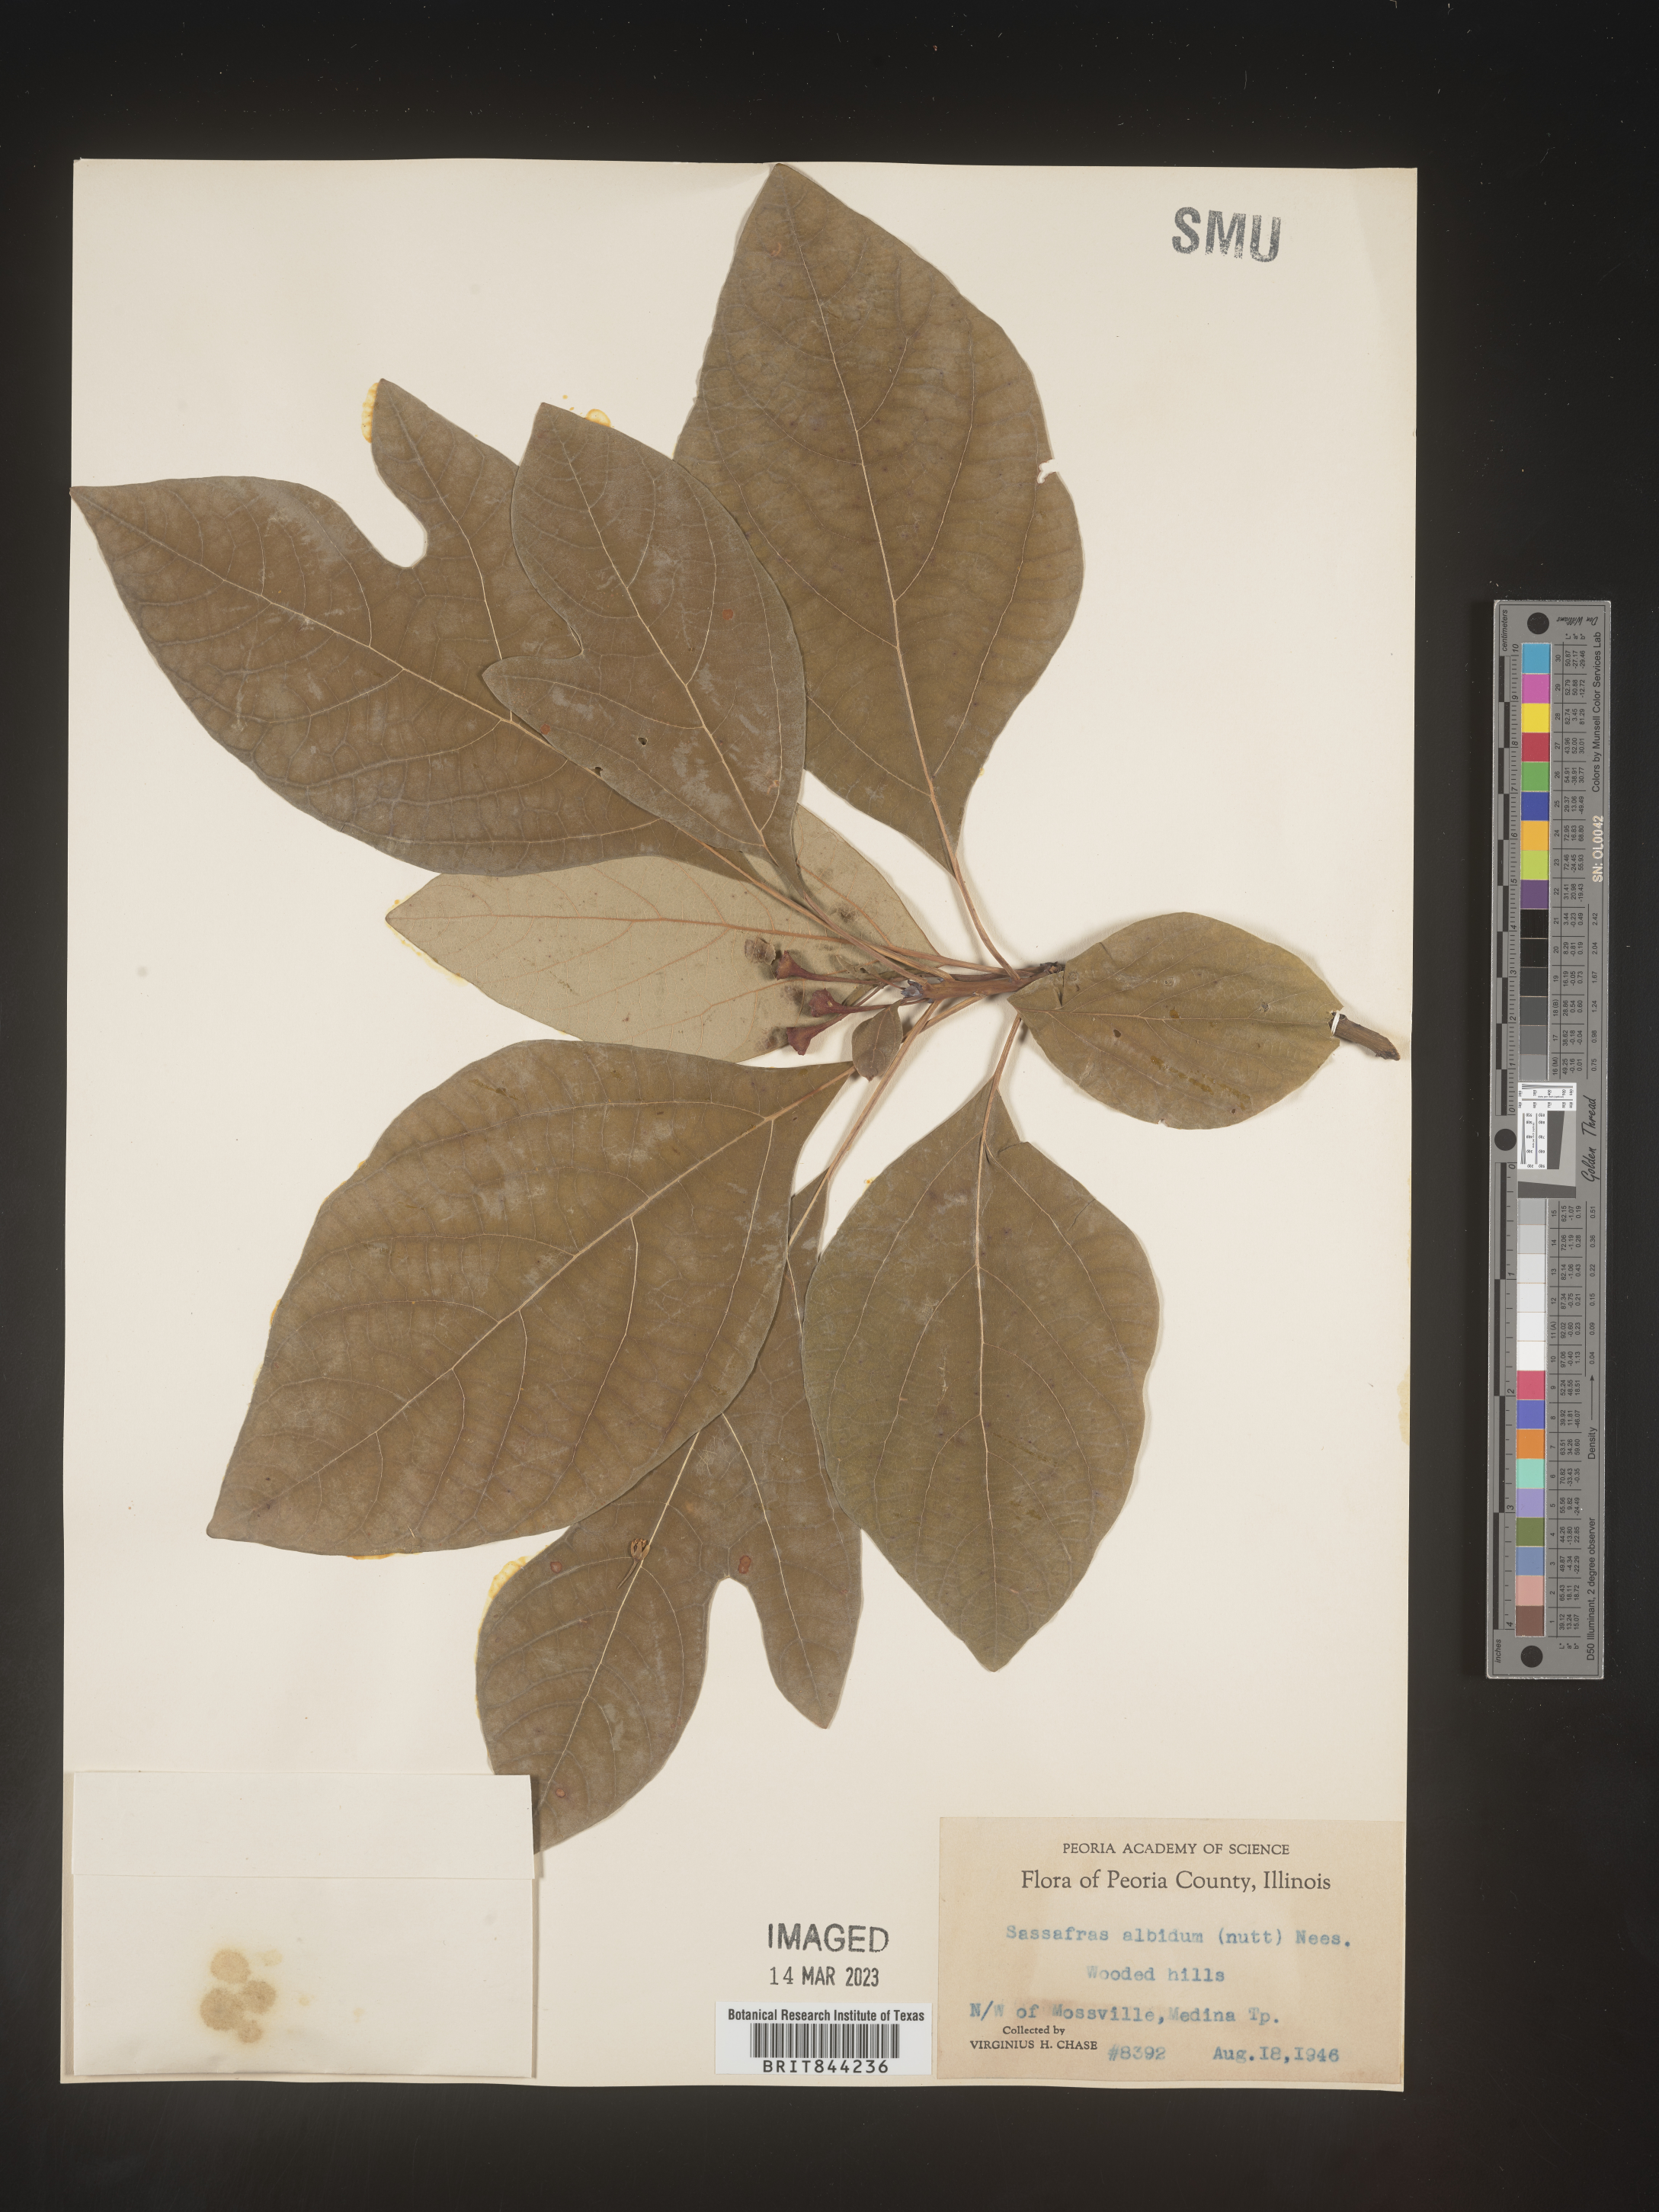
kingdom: Plantae
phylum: Tracheophyta
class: Magnoliopsida
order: Laurales
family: Lauraceae
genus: Sassafras
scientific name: Sassafras albidum
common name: Sassafras
